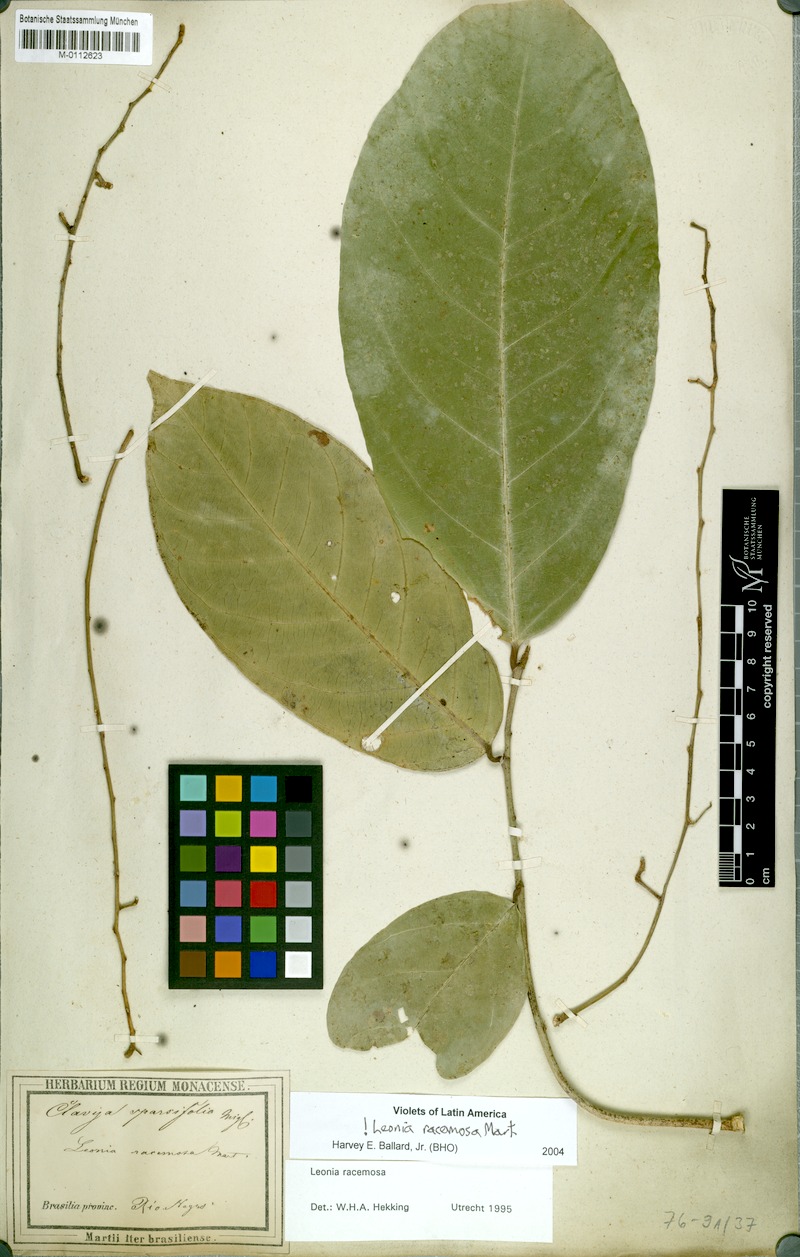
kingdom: Plantae
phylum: Tracheophyta
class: Magnoliopsida
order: Malpighiales
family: Violaceae
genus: Leonia
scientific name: Leonia racemosa
